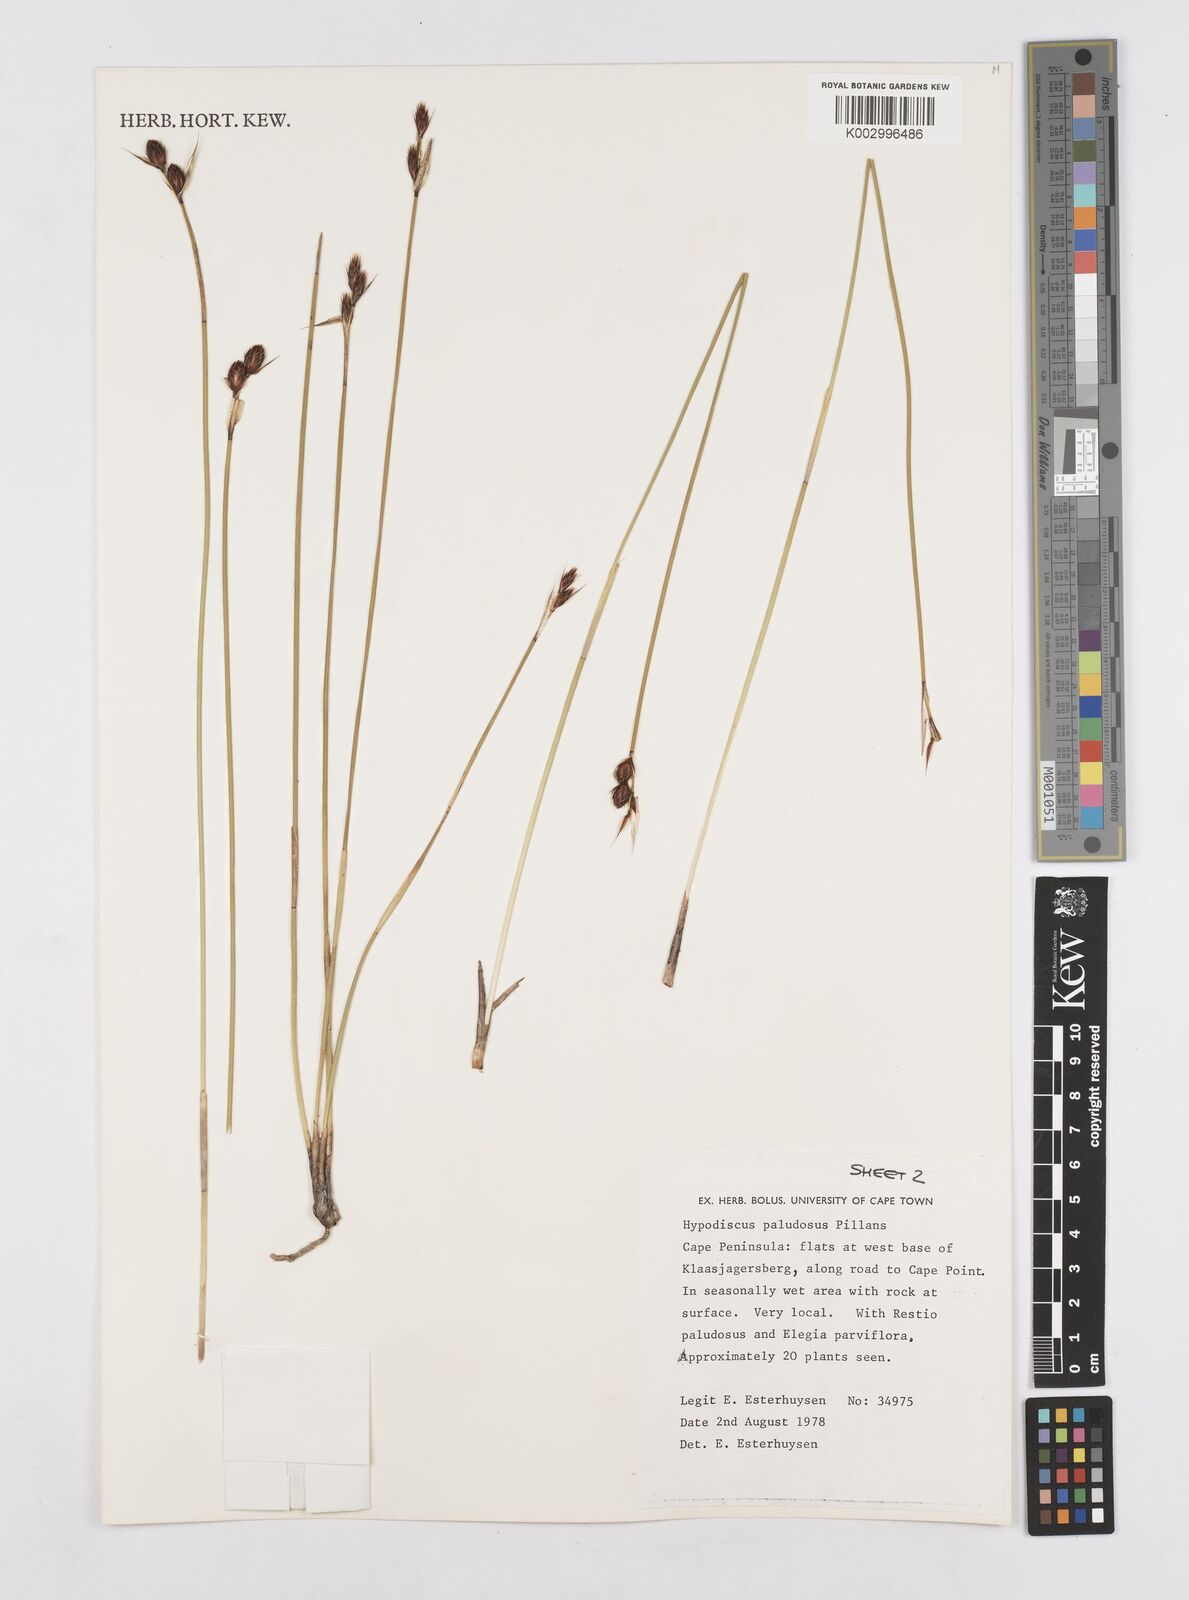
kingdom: Plantae
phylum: Tracheophyta
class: Liliopsida
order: Poales
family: Restionaceae
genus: Hypodiscus
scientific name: Hypodiscus rugosus
